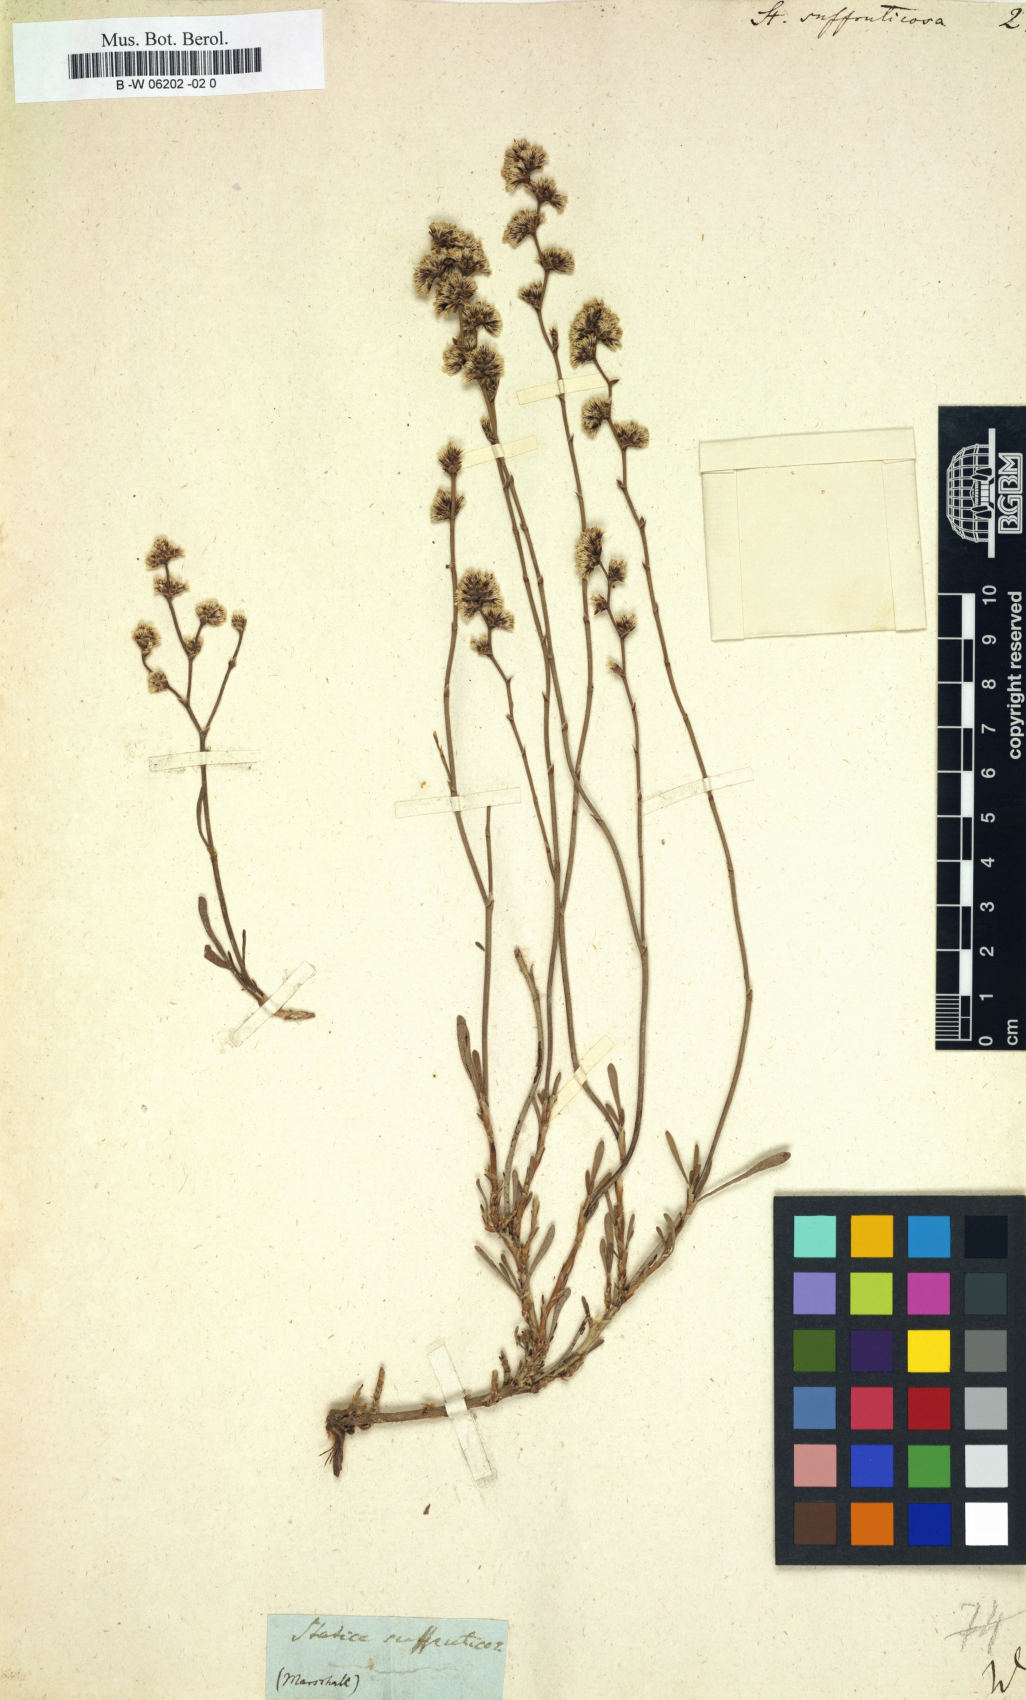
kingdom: Plantae
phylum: Tracheophyta
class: Magnoliopsida
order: Caryophyllales
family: Plumbaginaceae
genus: Limonium
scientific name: Limonium suffruticosum
